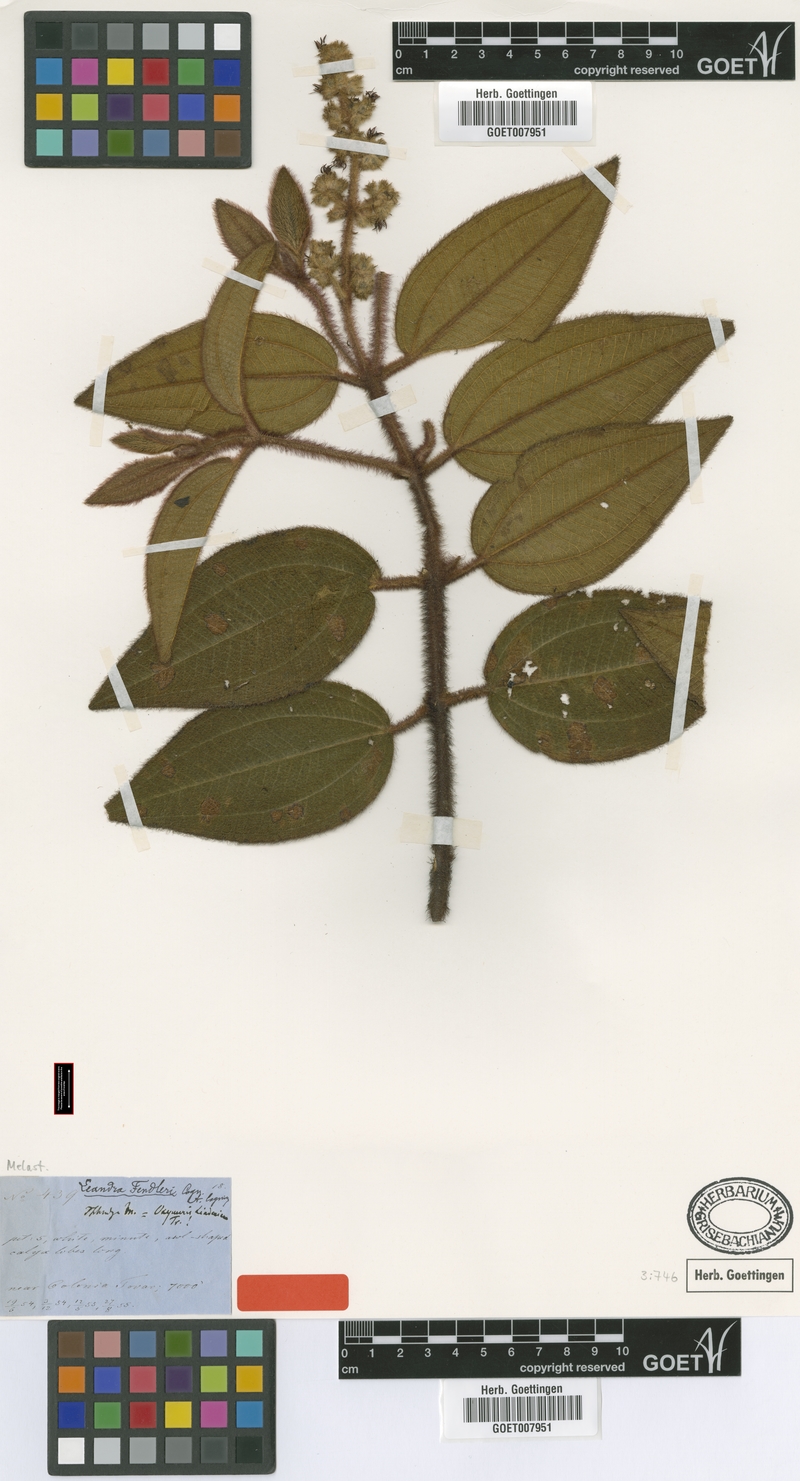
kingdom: Plantae
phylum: Tracheophyta
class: Magnoliopsida
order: Myrtales
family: Melastomataceae
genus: Miconia
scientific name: Miconia lealindeniana
